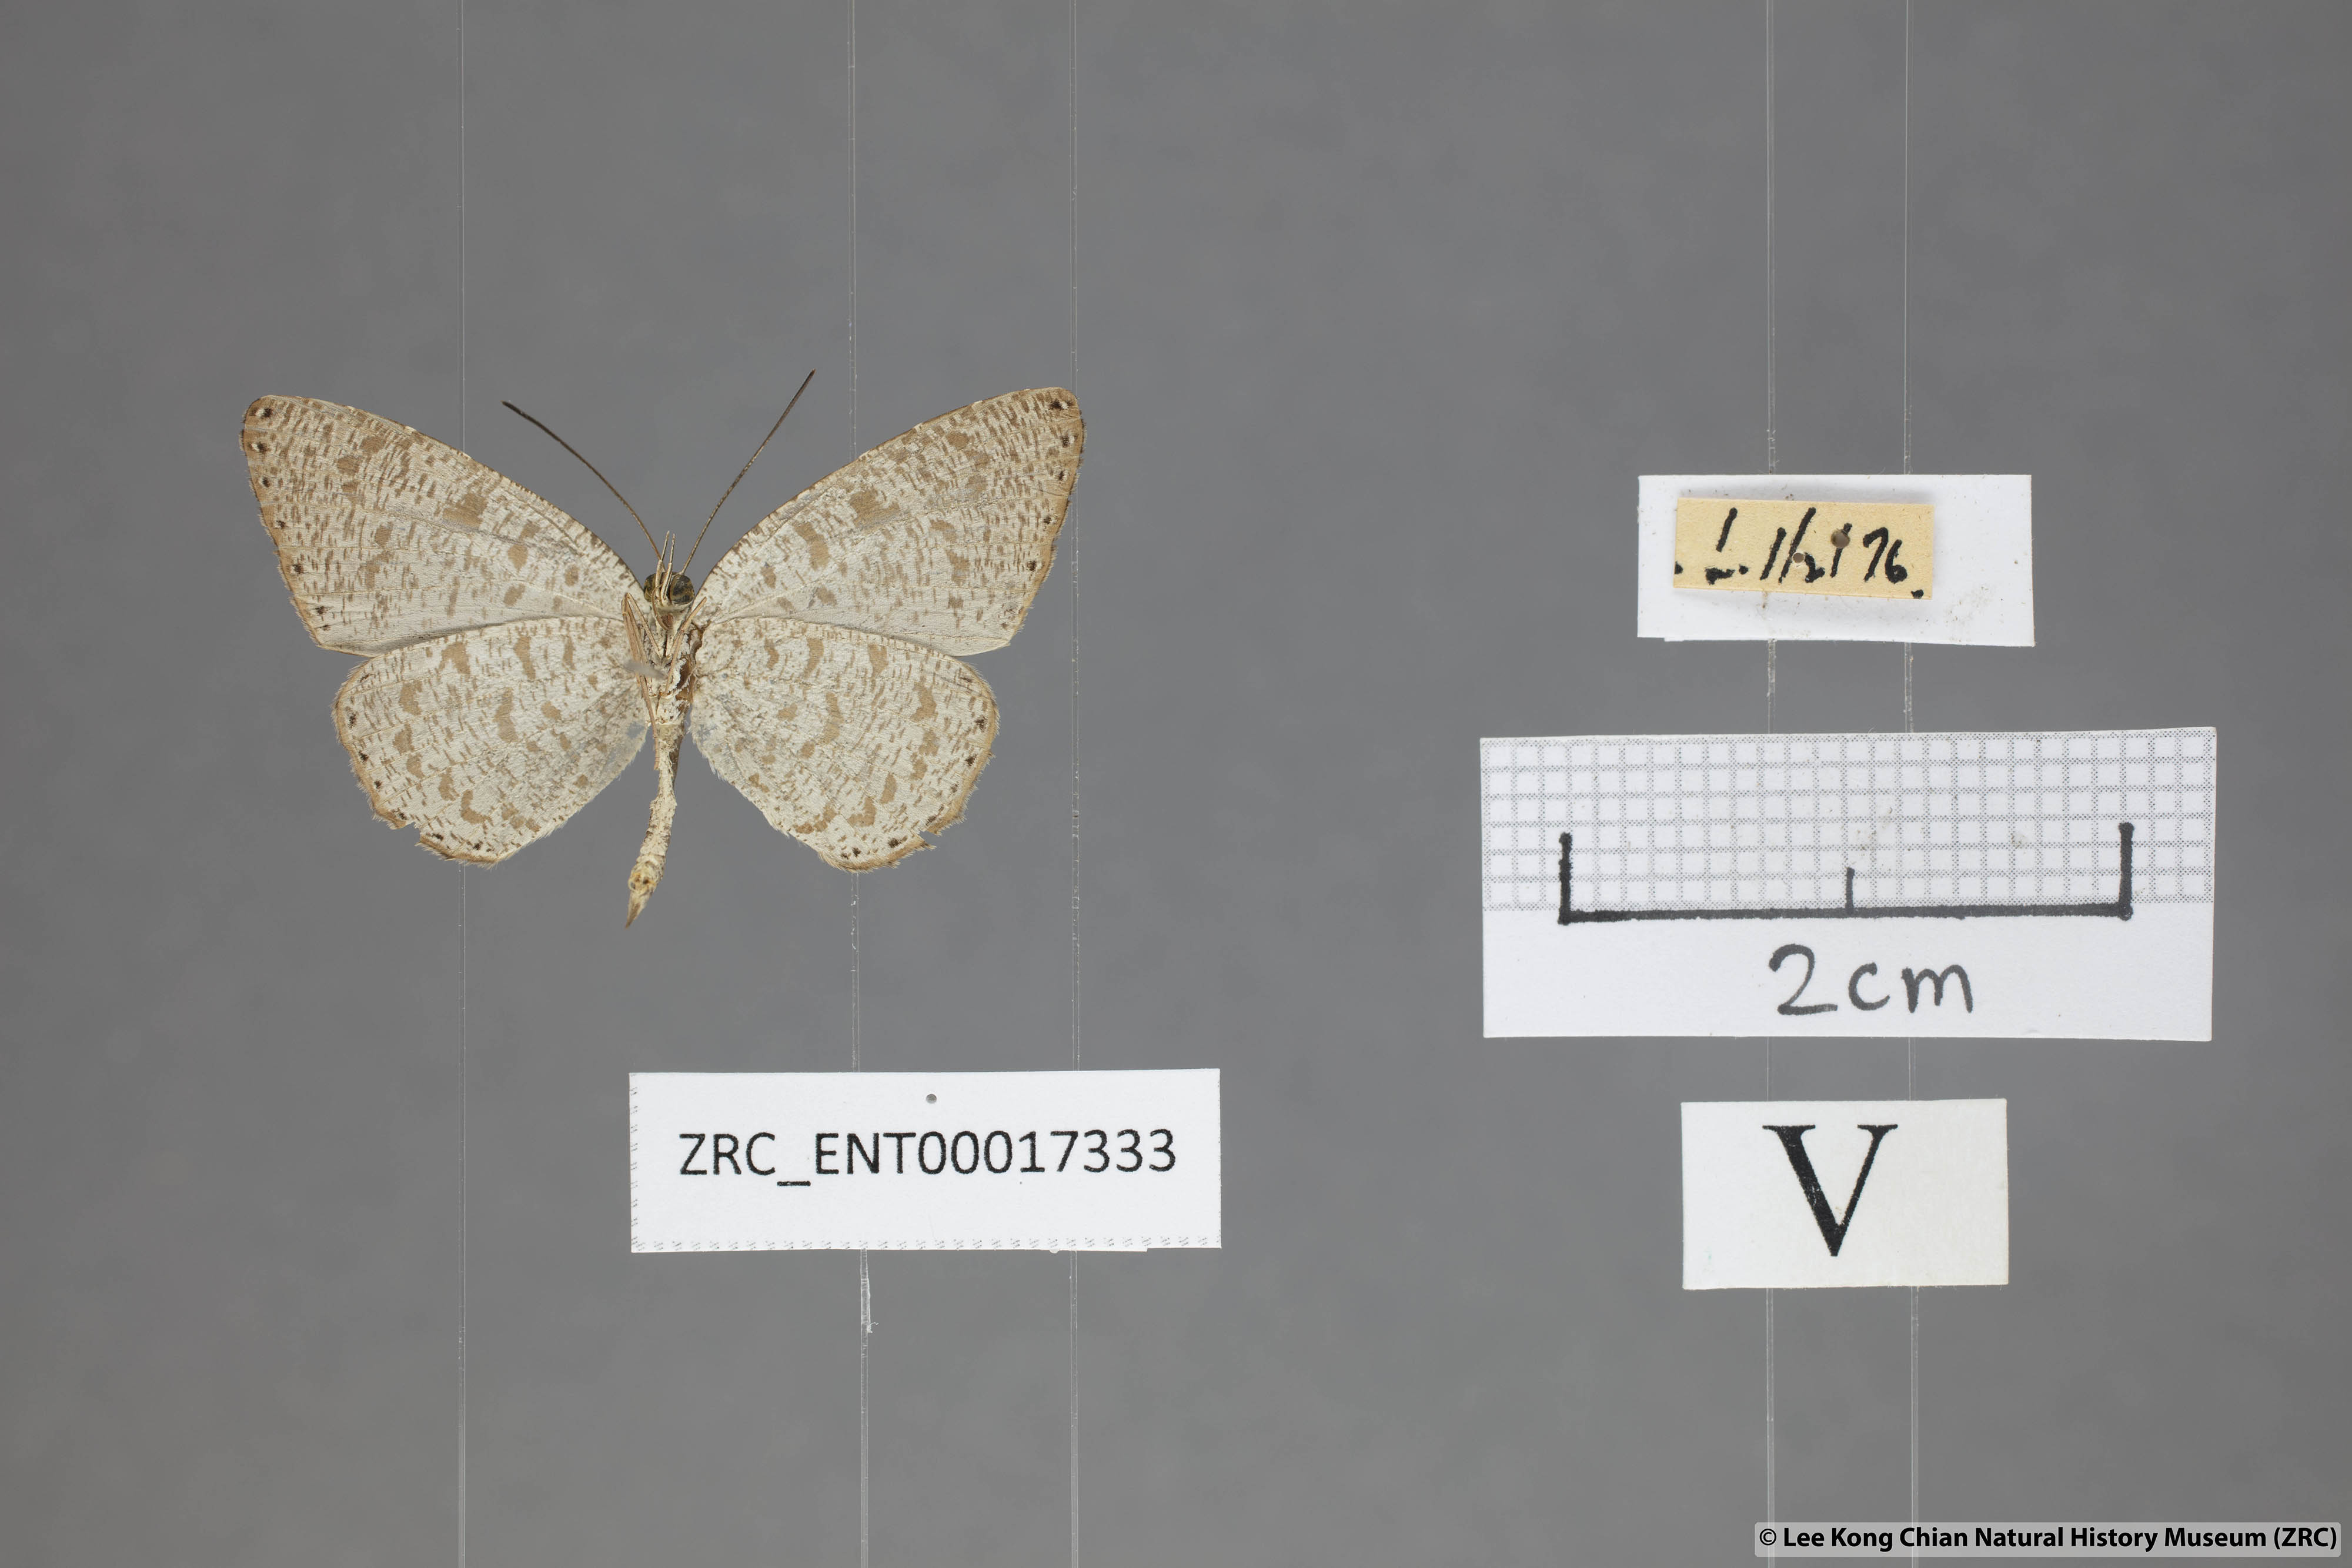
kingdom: Animalia
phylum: Arthropoda
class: Insecta
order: Lepidoptera
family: Lycaenidae
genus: Allotinus
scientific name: Allotinus sarastes
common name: Peninsular darkie
